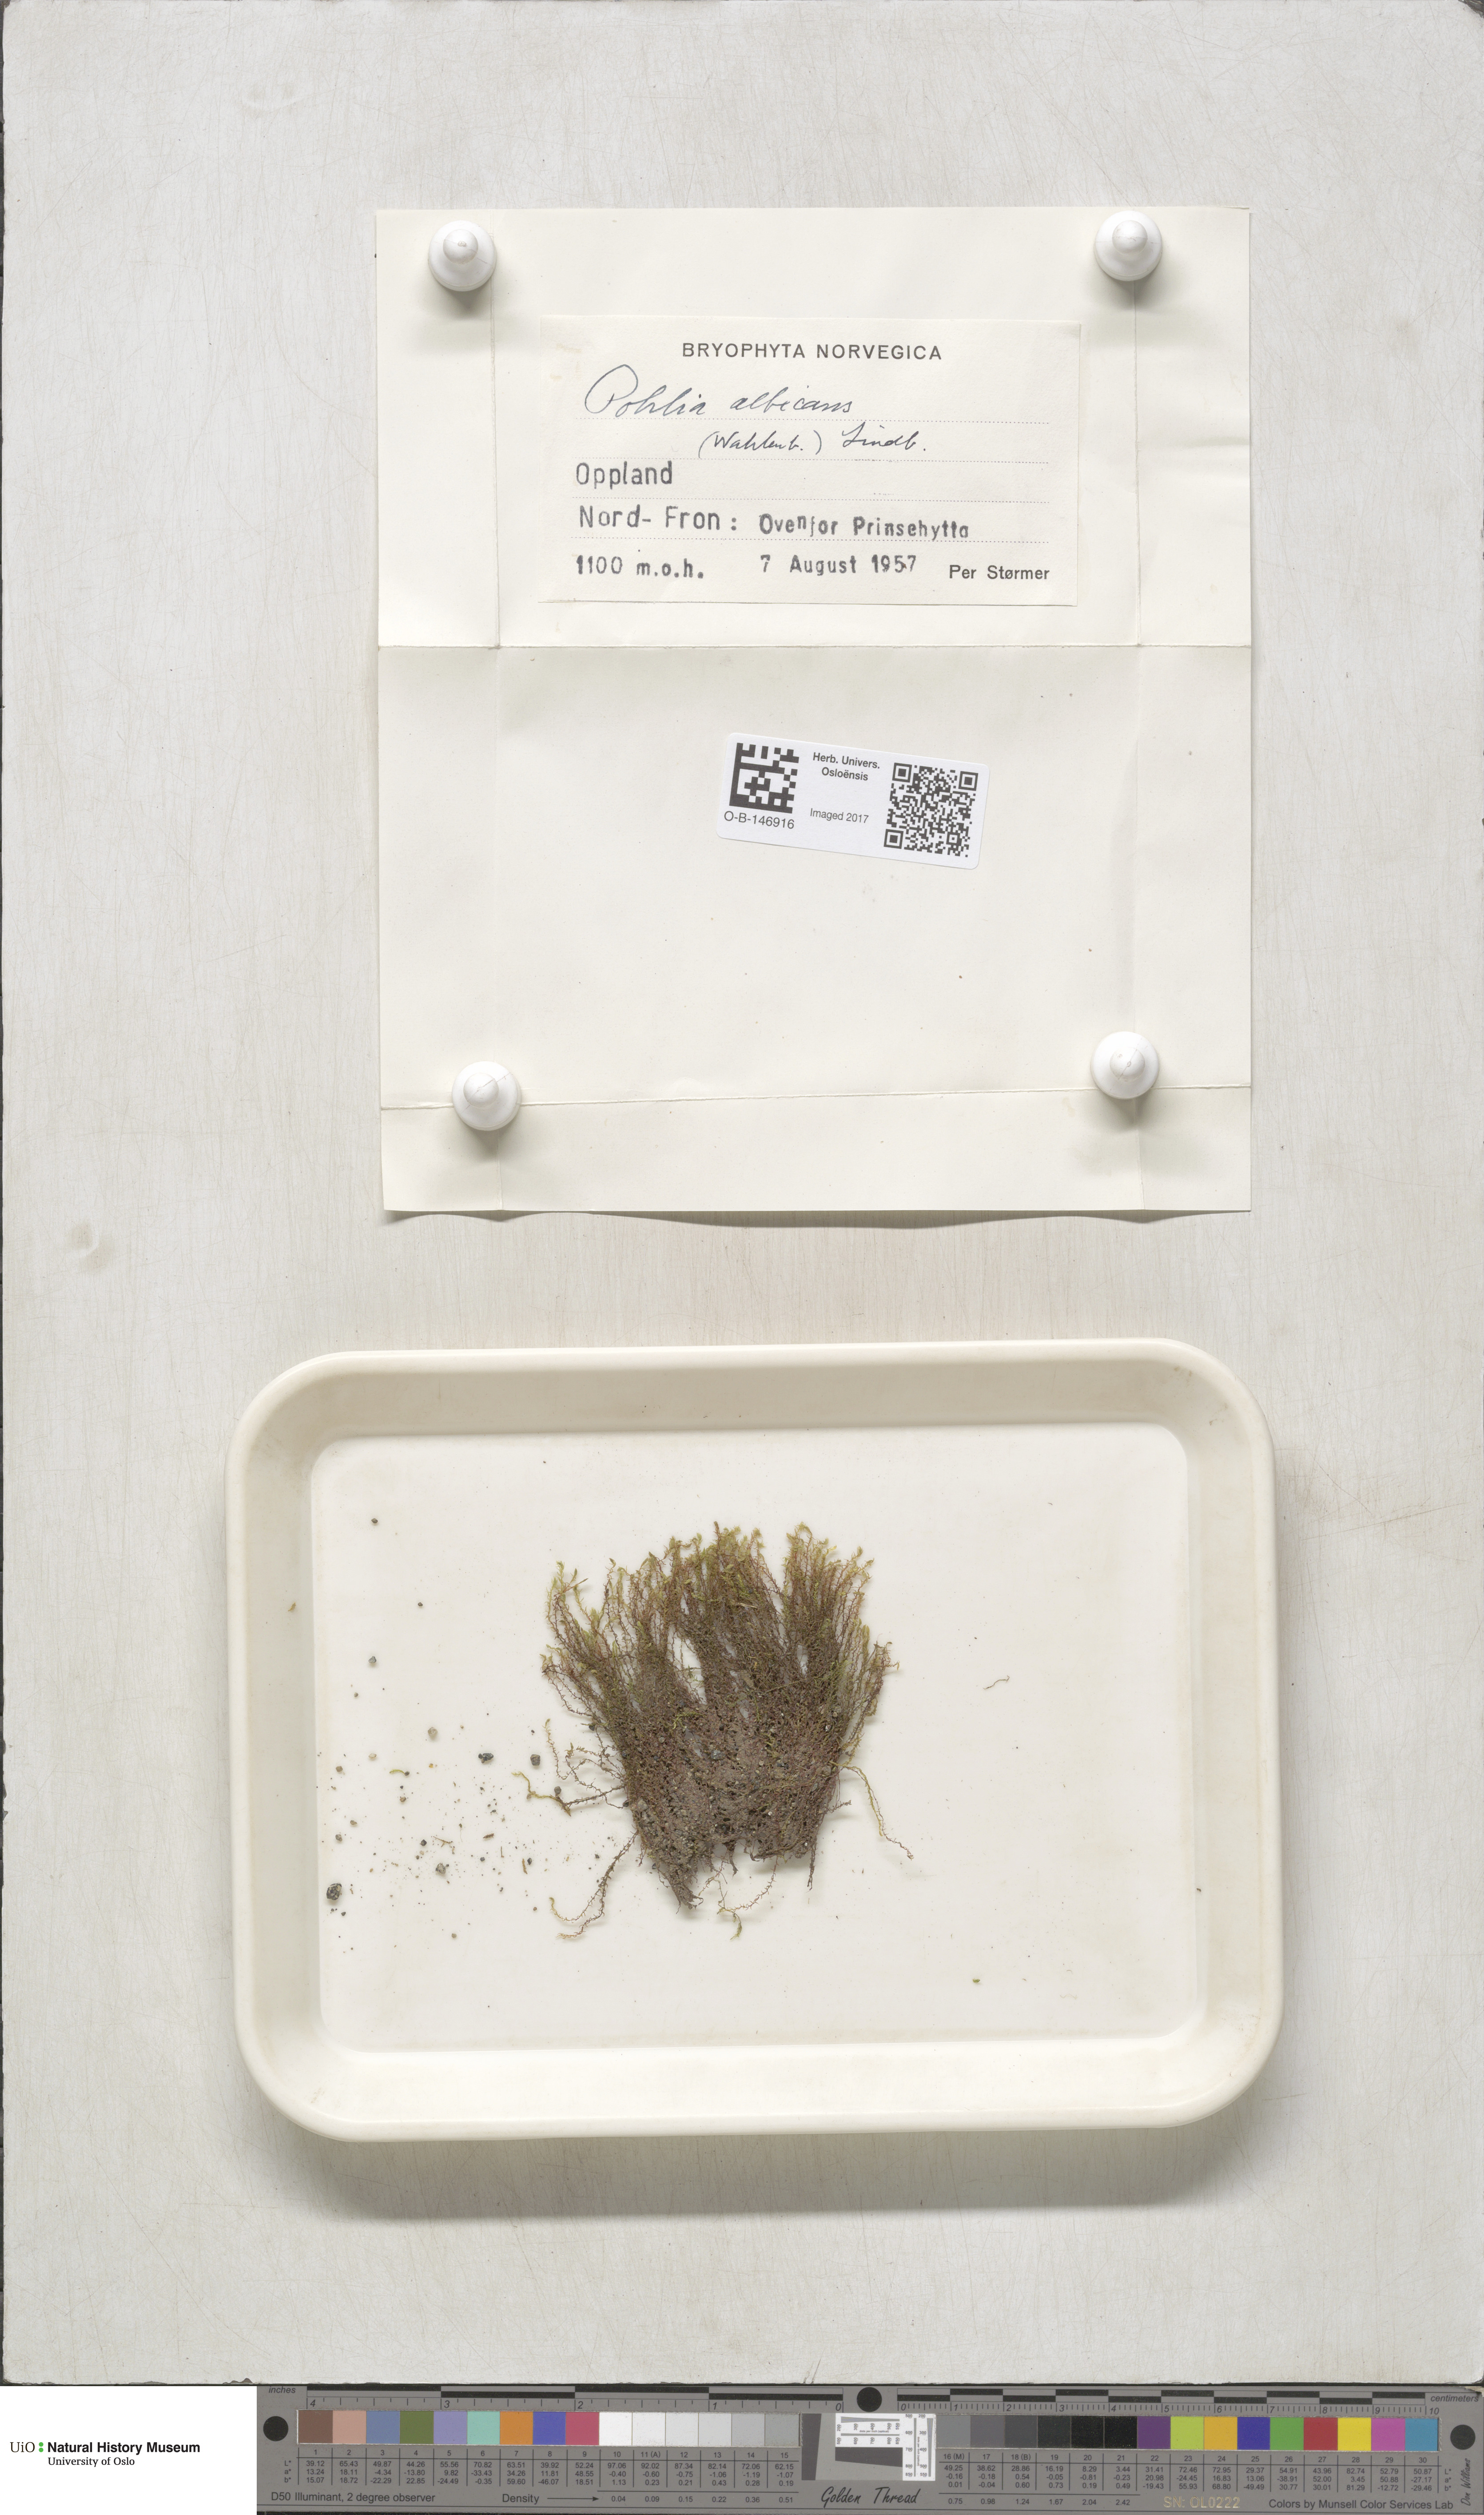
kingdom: Plantae
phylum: Bryophyta
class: Bryopsida
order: Bryales
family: Mniaceae
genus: Pohlia
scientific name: Pohlia wahlenbergii
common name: Wahlenberg's nodding moss
